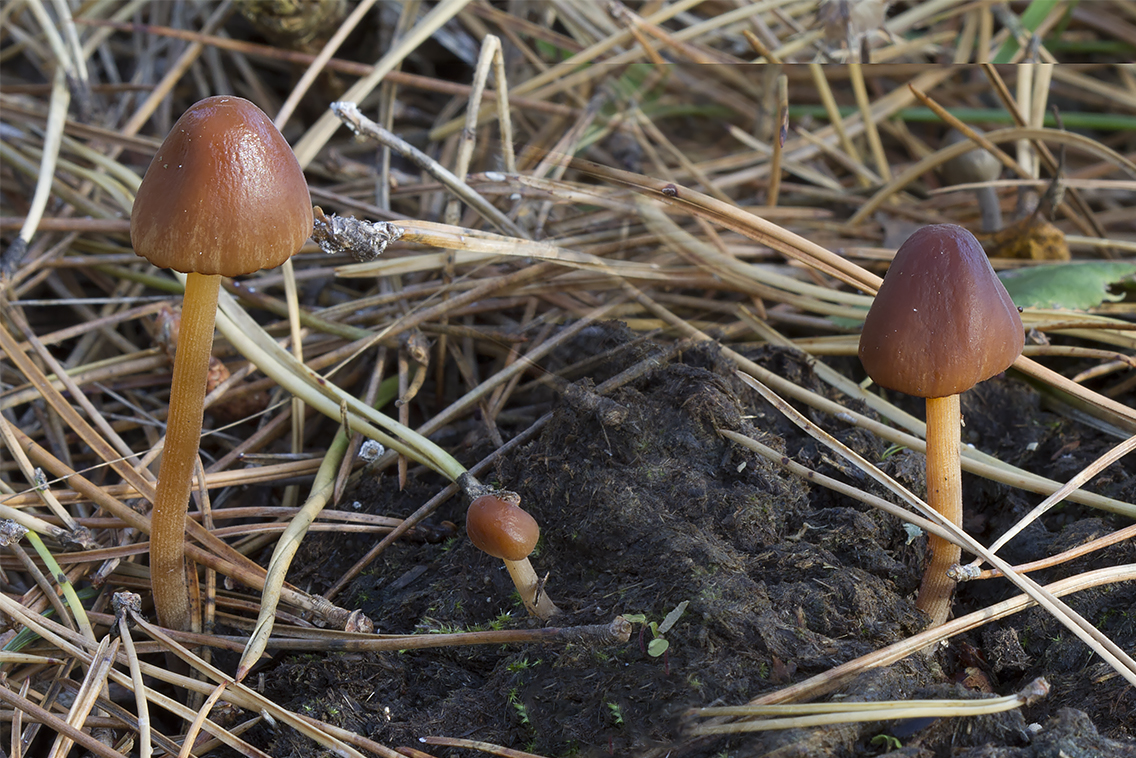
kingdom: Fungi
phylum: Basidiomycota
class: Agaricomycetes
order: Agaricales
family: Bolbitiaceae
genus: Conocybe
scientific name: Conocybe pubescens
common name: gødnings-keglehat
